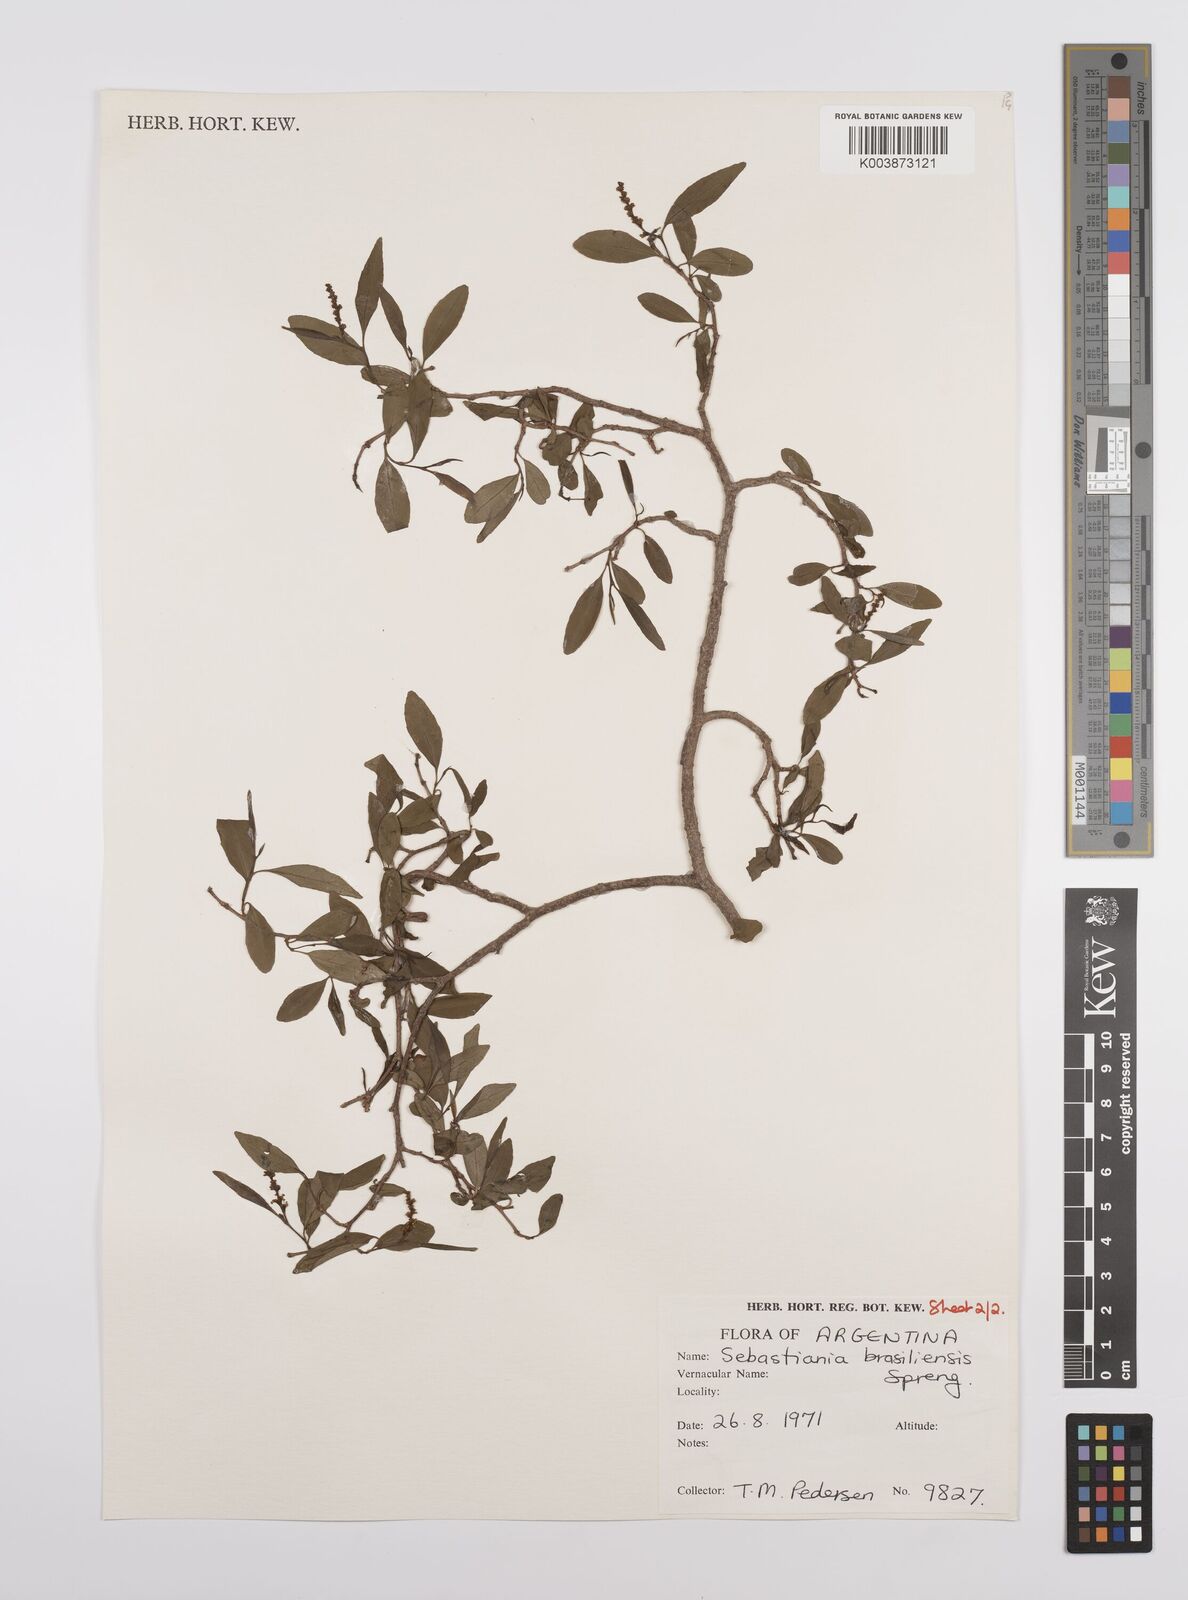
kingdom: Plantae
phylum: Tracheophyta
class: Magnoliopsida
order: Malpighiales
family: Euphorbiaceae
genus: Sebastiania
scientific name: Sebastiania brasiliensis
